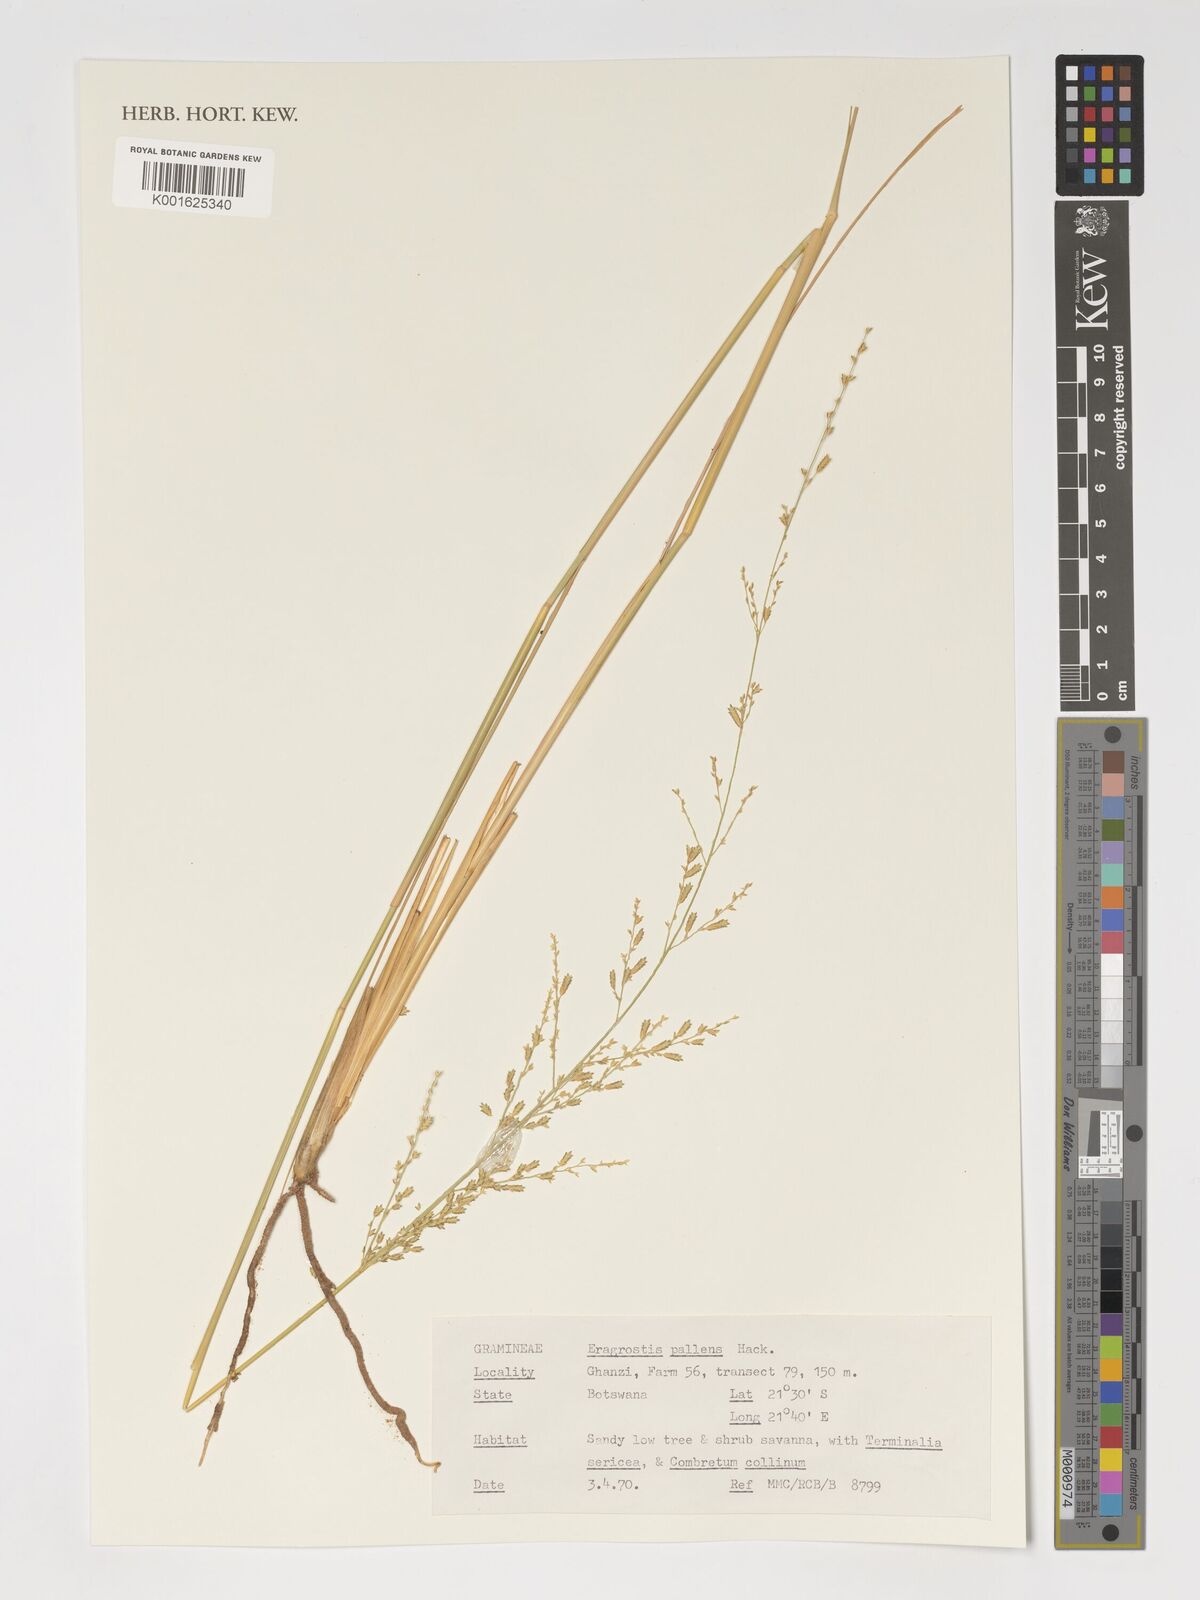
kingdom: Plantae
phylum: Tracheophyta
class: Liliopsida
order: Poales
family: Poaceae
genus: Eragrostis
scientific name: Eragrostis pallens
